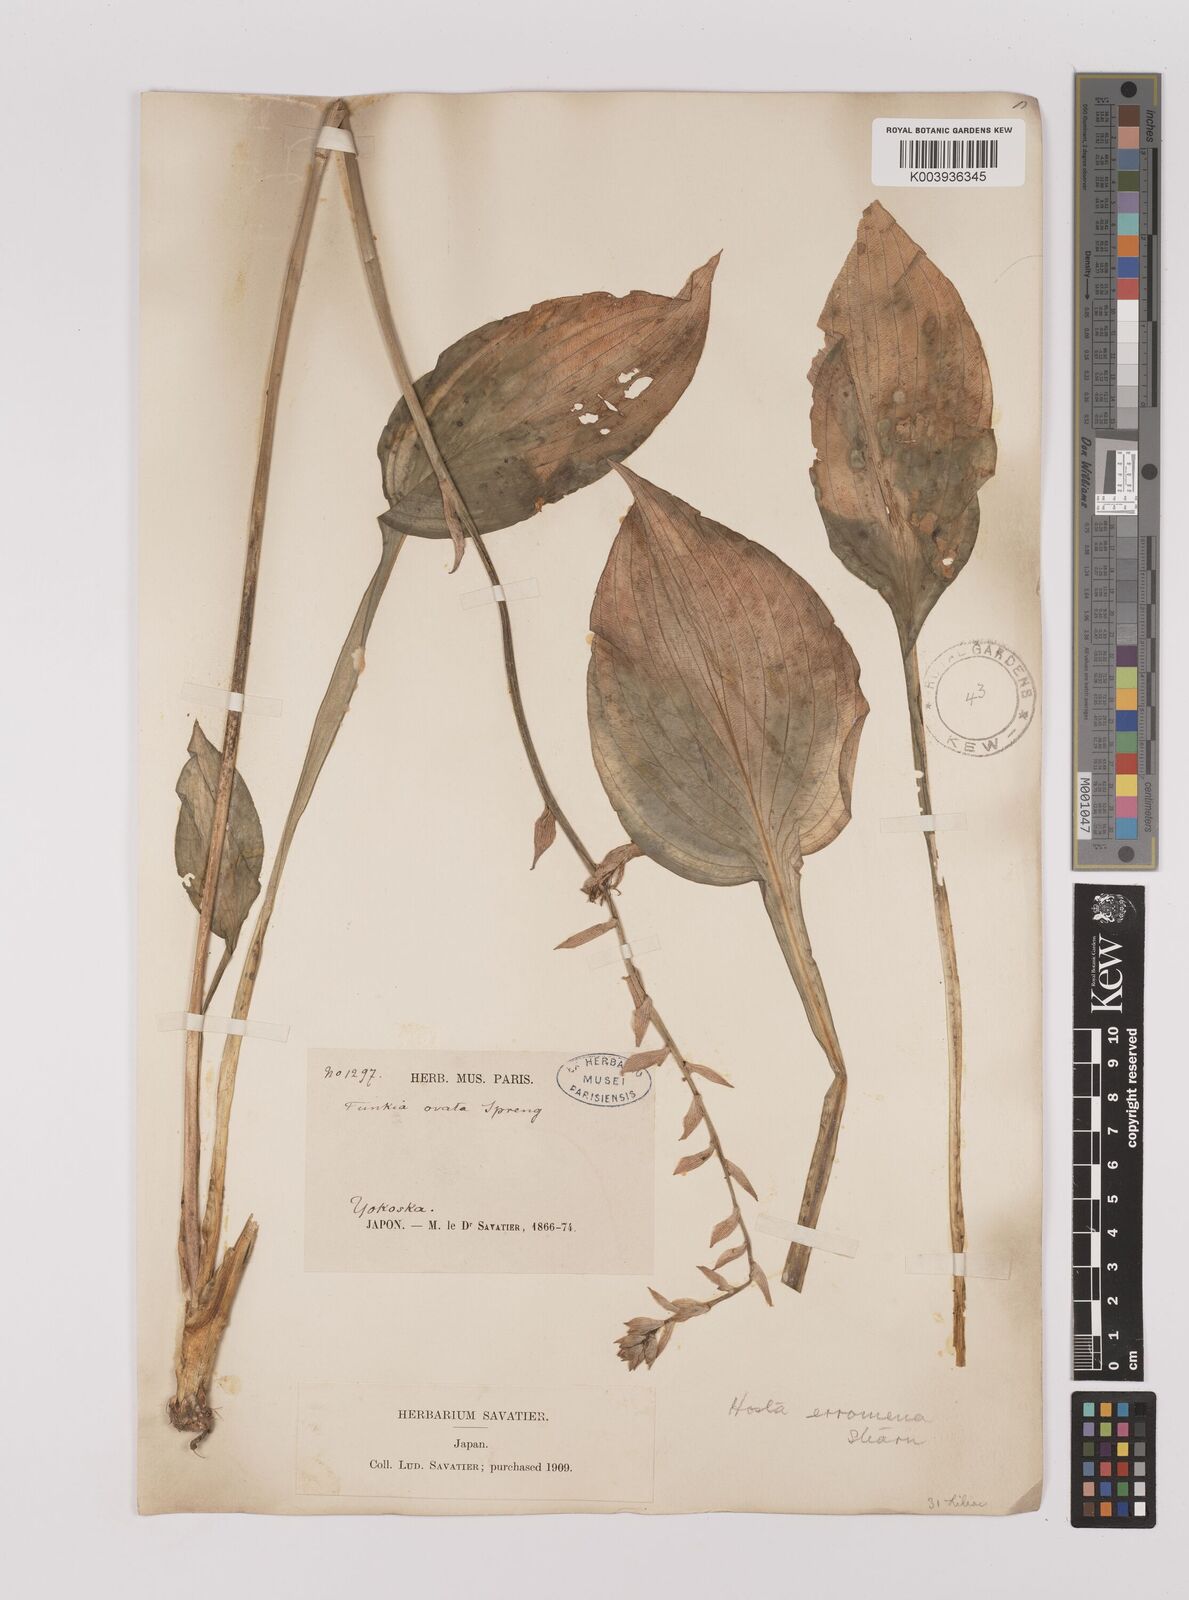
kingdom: Plantae
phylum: Tracheophyta
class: Liliopsida
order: Asparagales
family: Asparagaceae
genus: Hosta
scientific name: Hosta sieboldii
